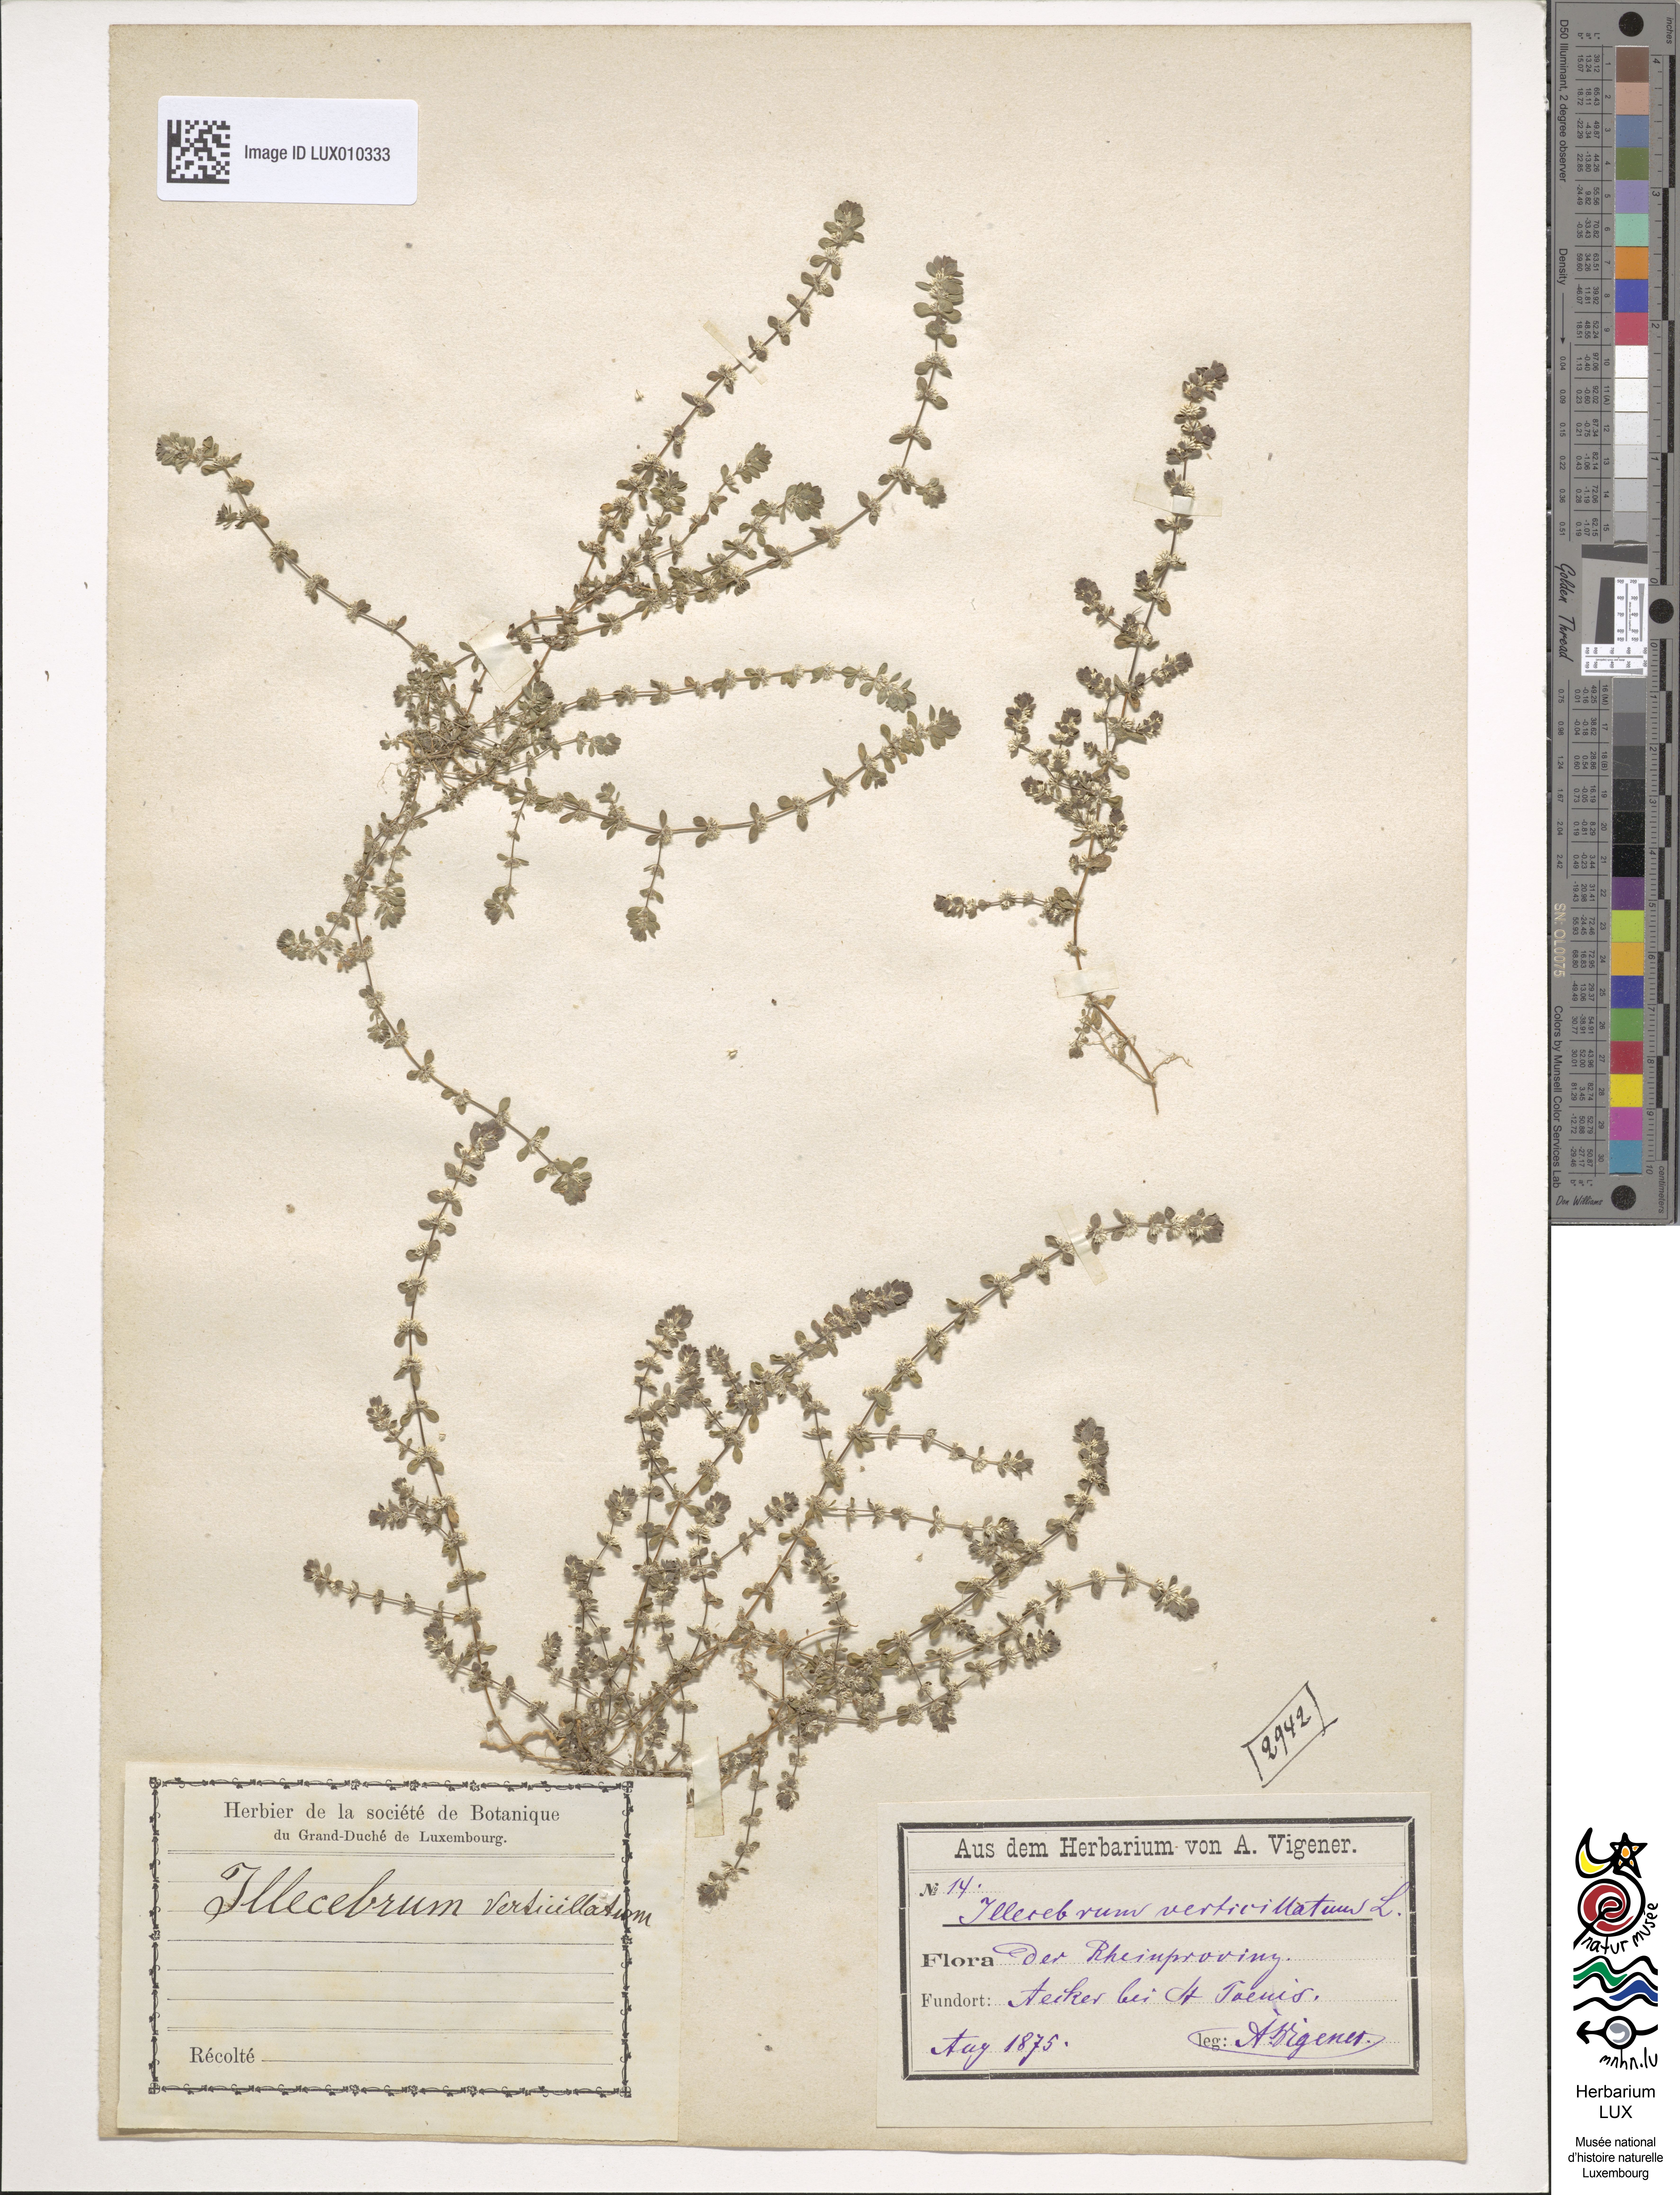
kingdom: Plantae
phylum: Tracheophyta
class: Magnoliopsida
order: Caryophyllales
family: Caryophyllaceae
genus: Illecebrum
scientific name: Illecebrum verticillatum
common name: Coral necklace
